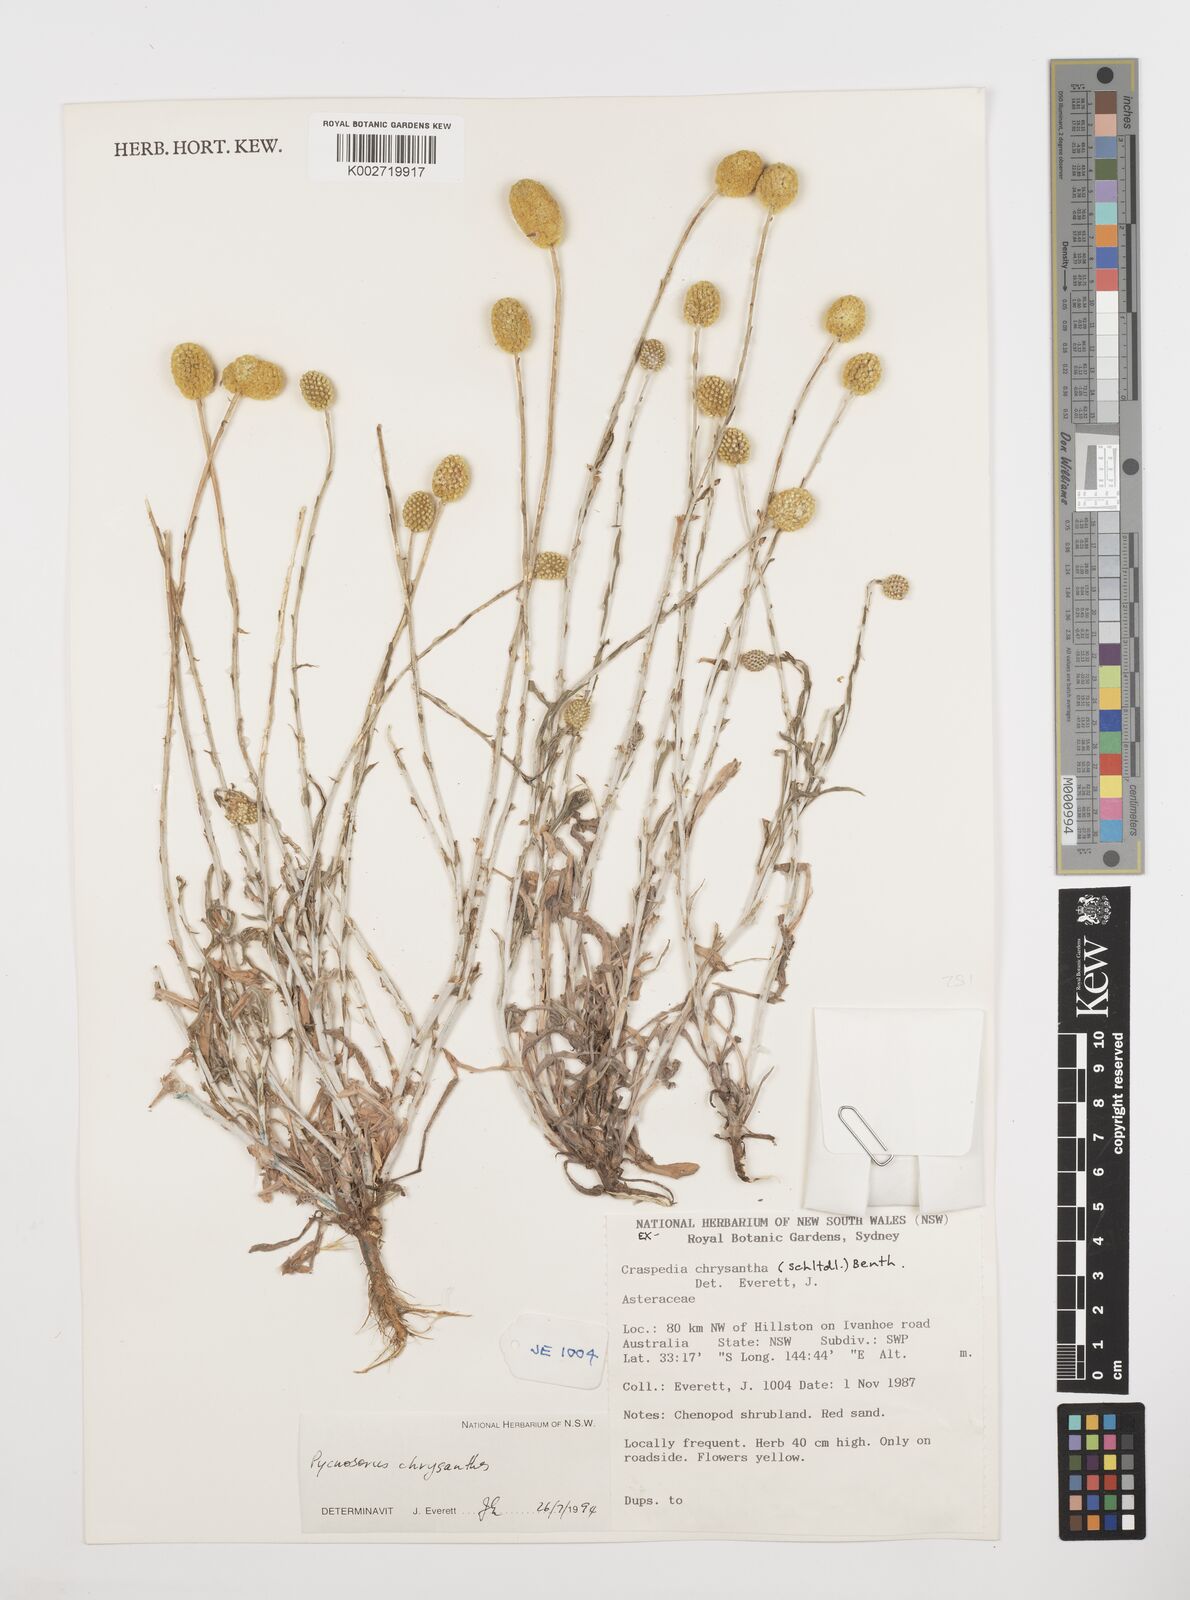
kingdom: Plantae
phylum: Tracheophyta
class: Magnoliopsida
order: Asterales
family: Asteraceae
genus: Pycnosorus
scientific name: Pycnosorus chrysanthus
